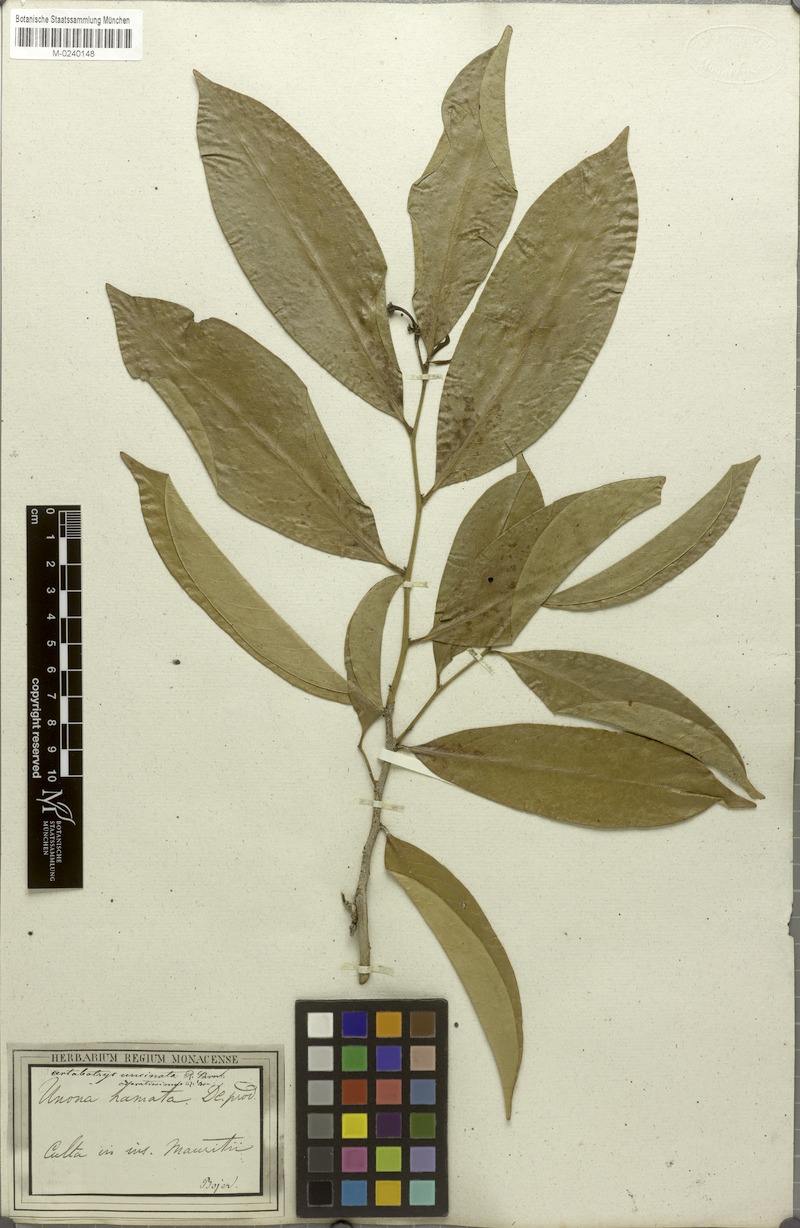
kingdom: Plantae
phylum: Tracheophyta
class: Magnoliopsida
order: Magnoliales
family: Annonaceae
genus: Artabotrys
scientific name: Artabotrys hexapetalus
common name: Climbing ilang-ilang
